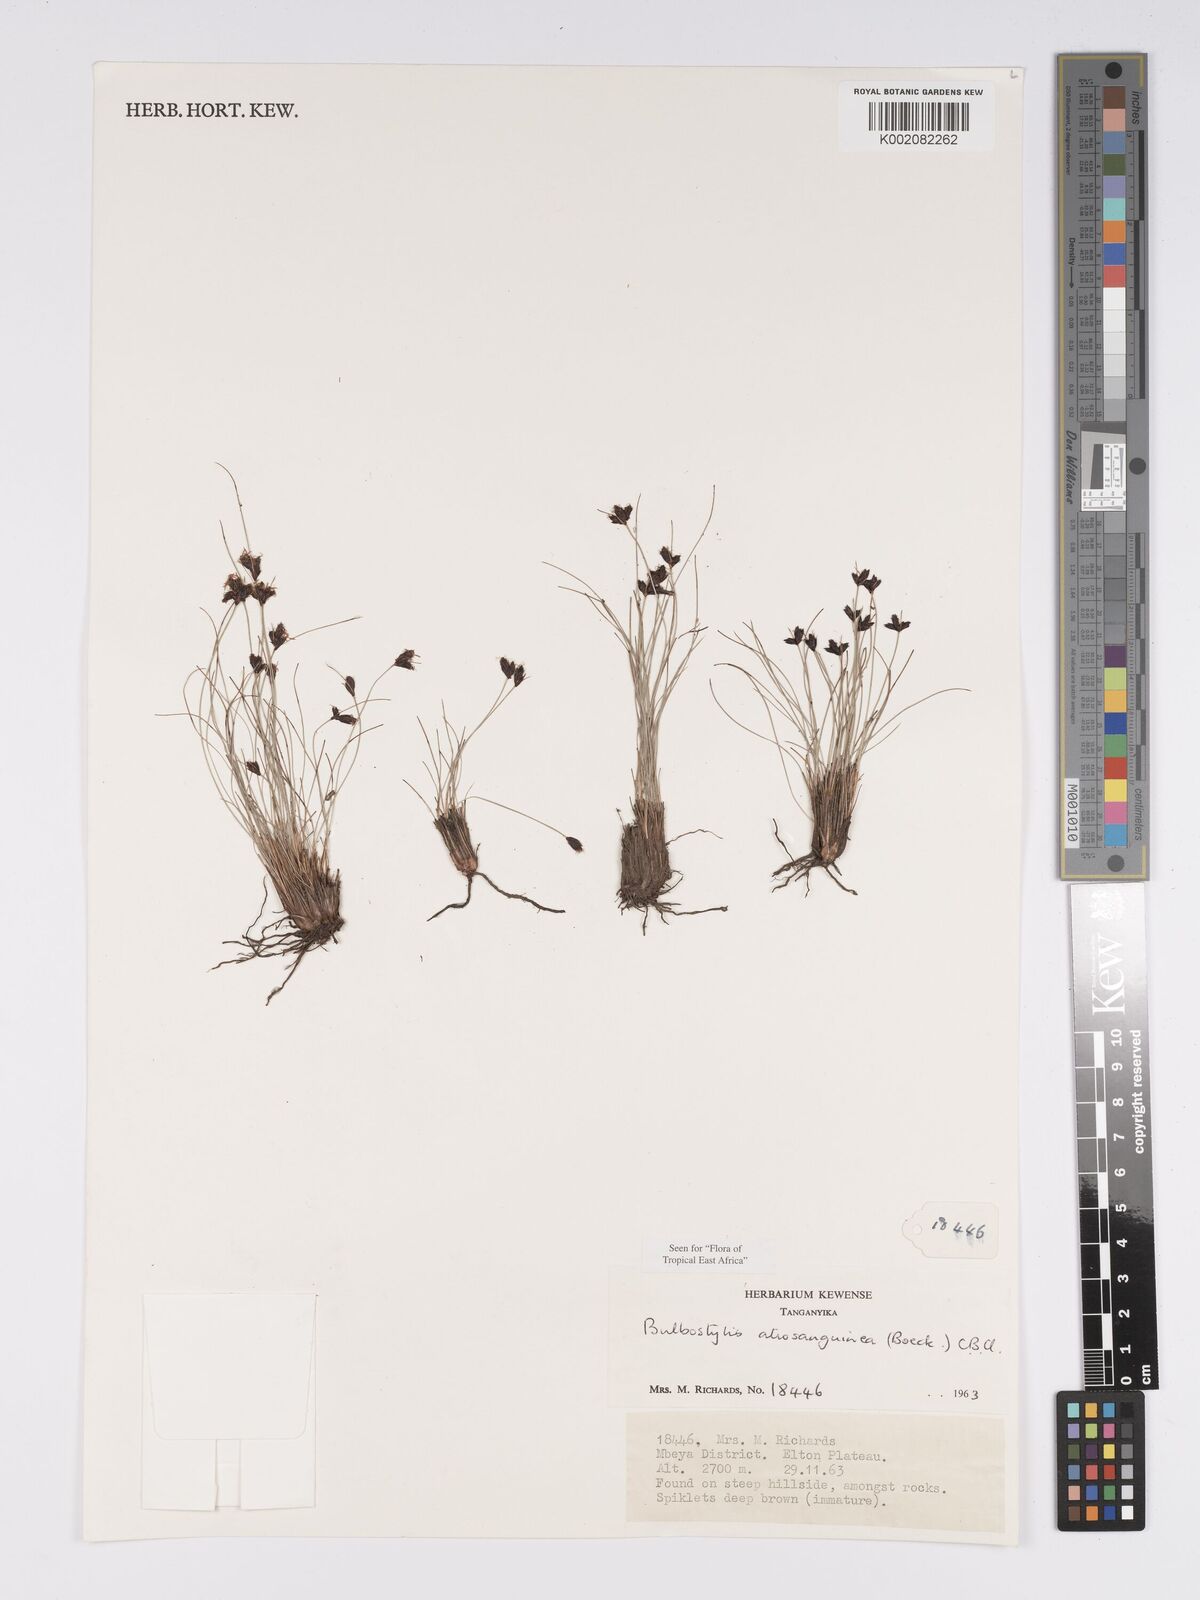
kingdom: Plantae
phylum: Tracheophyta
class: Liliopsida
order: Poales
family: Cyperaceae
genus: Bulbostylis
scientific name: Bulbostylis atrosanguinea
